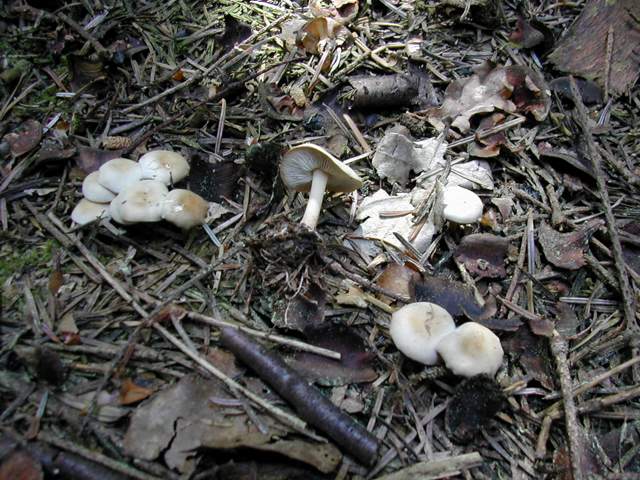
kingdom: Fungi
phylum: Basidiomycota
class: Agaricomycetes
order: Agaricales
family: Omphalotaceae
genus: Gymnopus
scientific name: Gymnopus aquosus
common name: bleg fladhat
